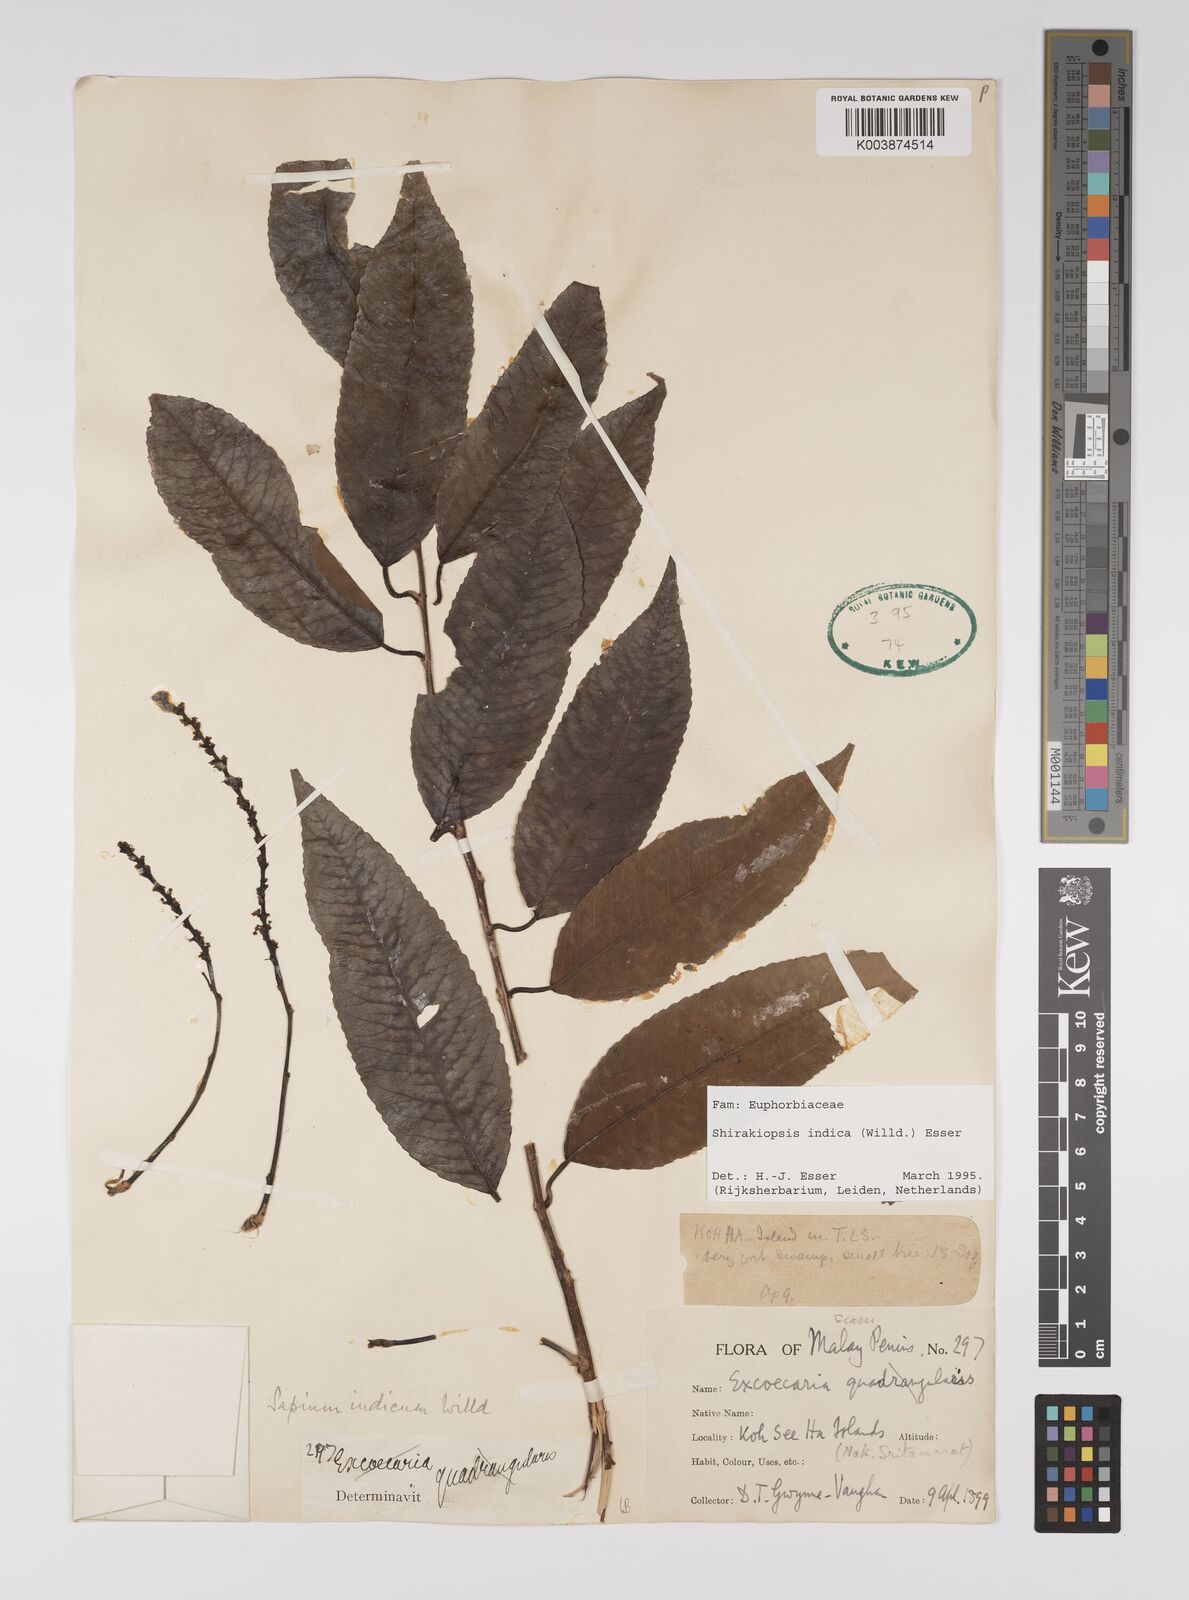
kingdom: Plantae
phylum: Tracheophyta
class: Magnoliopsida
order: Malpighiales
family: Euphorbiaceae
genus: Shirakiopsis
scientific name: Shirakiopsis indica
